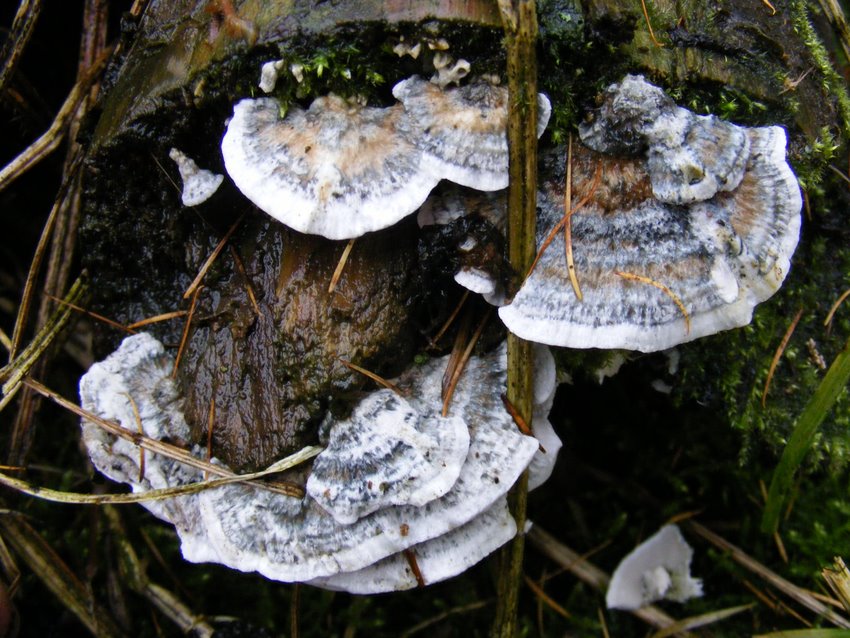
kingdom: Fungi
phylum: Basidiomycota
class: Agaricomycetes
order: Polyporales
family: Polyporaceae
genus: Cyanosporus
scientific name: Cyanosporus caesius
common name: blålig kødporesvamp
